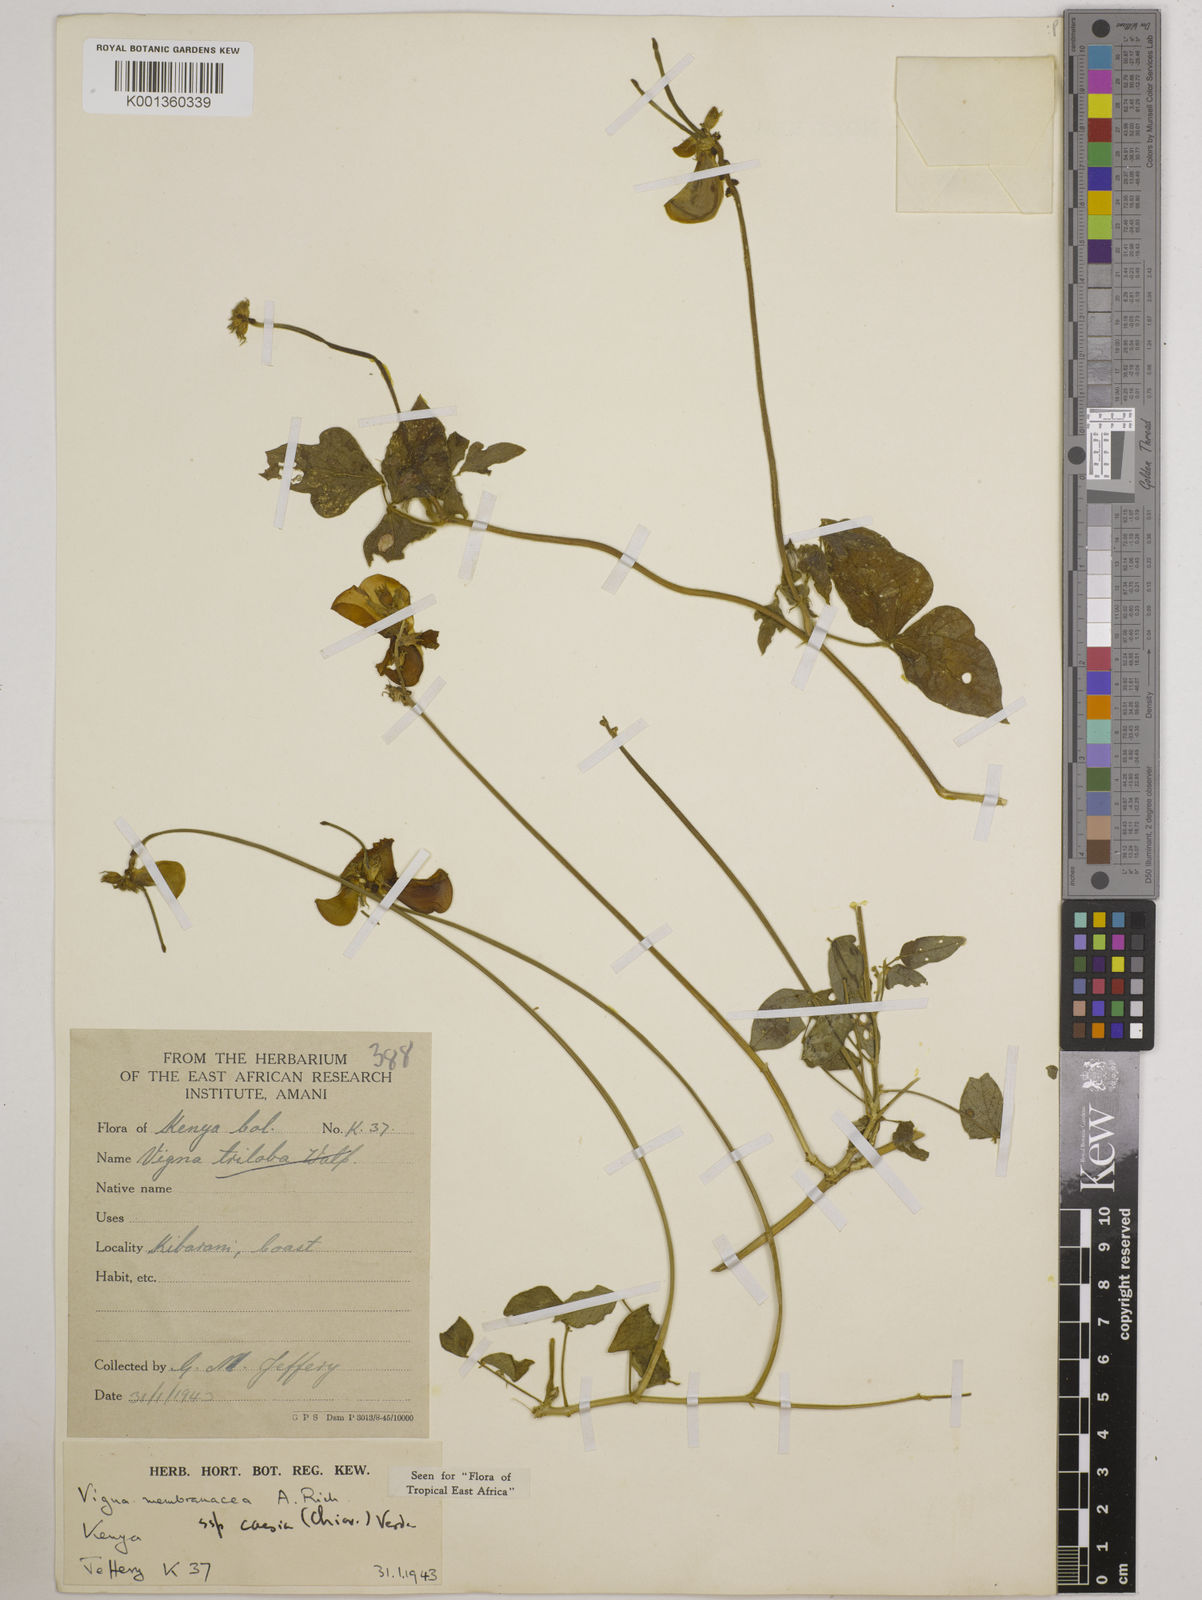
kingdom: Plantae
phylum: Tracheophyta
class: Magnoliopsida
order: Fabales
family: Fabaceae
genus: Vigna
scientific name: Vigna
